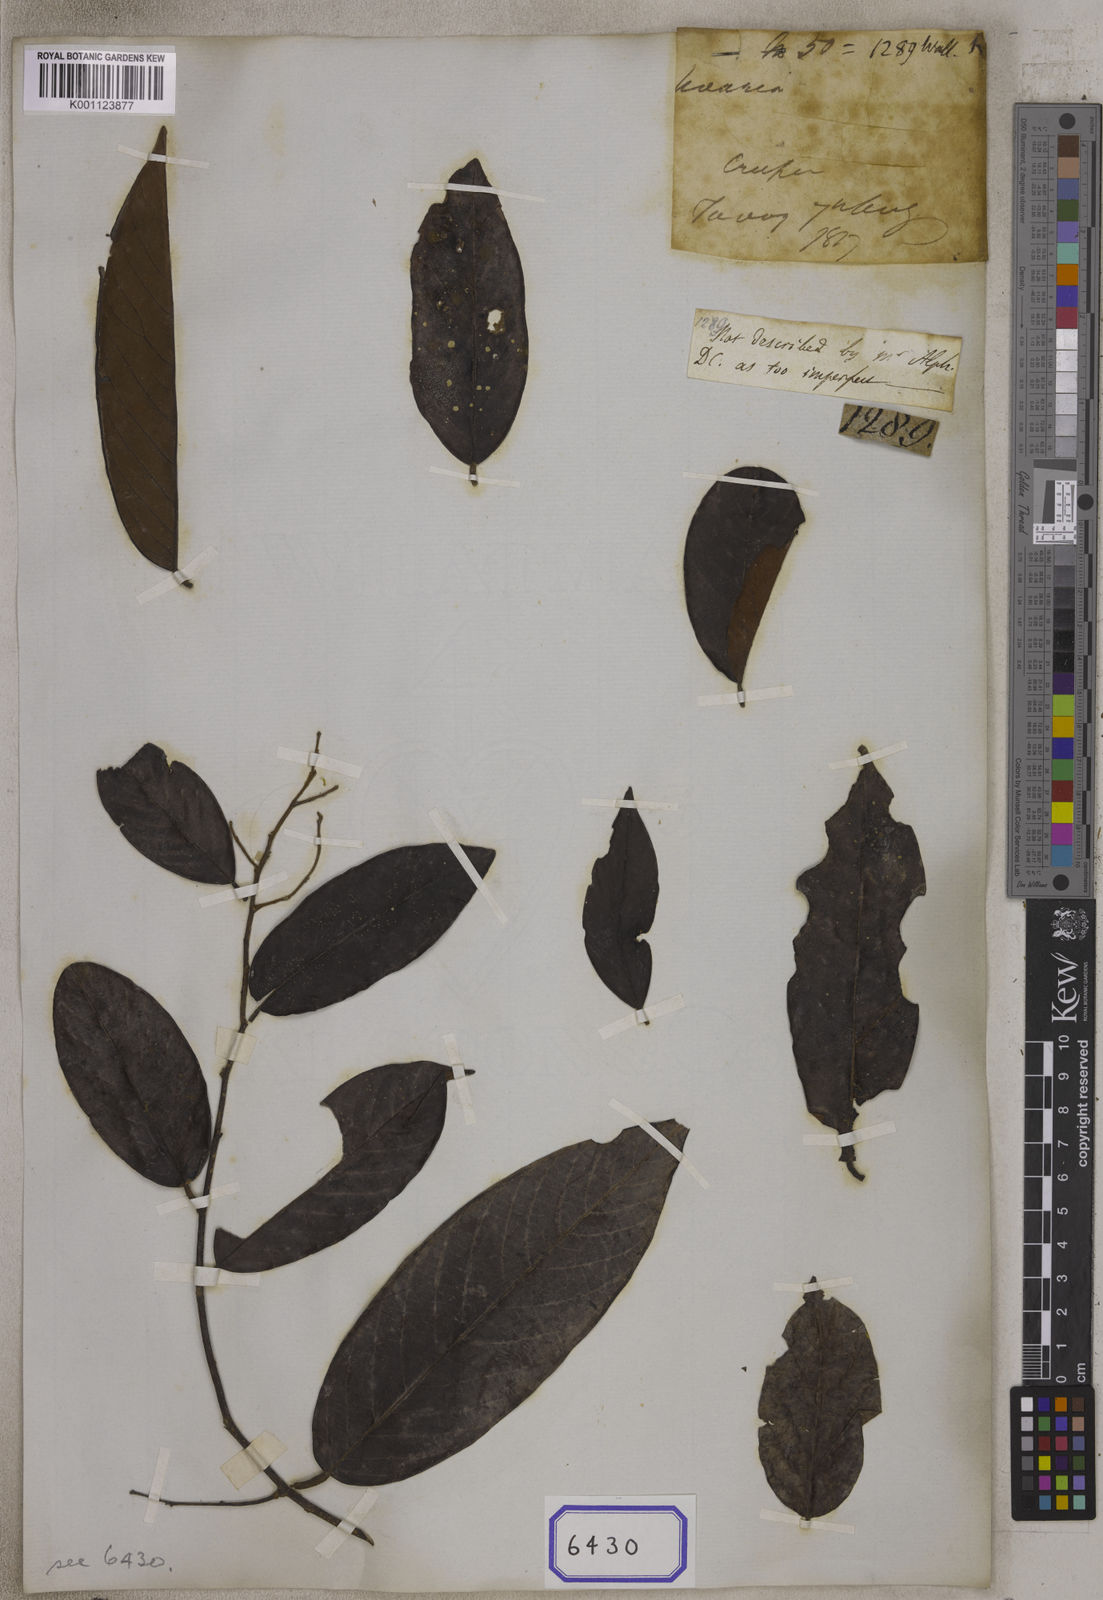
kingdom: Plantae
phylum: Tracheophyta
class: Magnoliopsida
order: Magnoliales
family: Annonaceae
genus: Uvaria
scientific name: Uvaria micrantha
